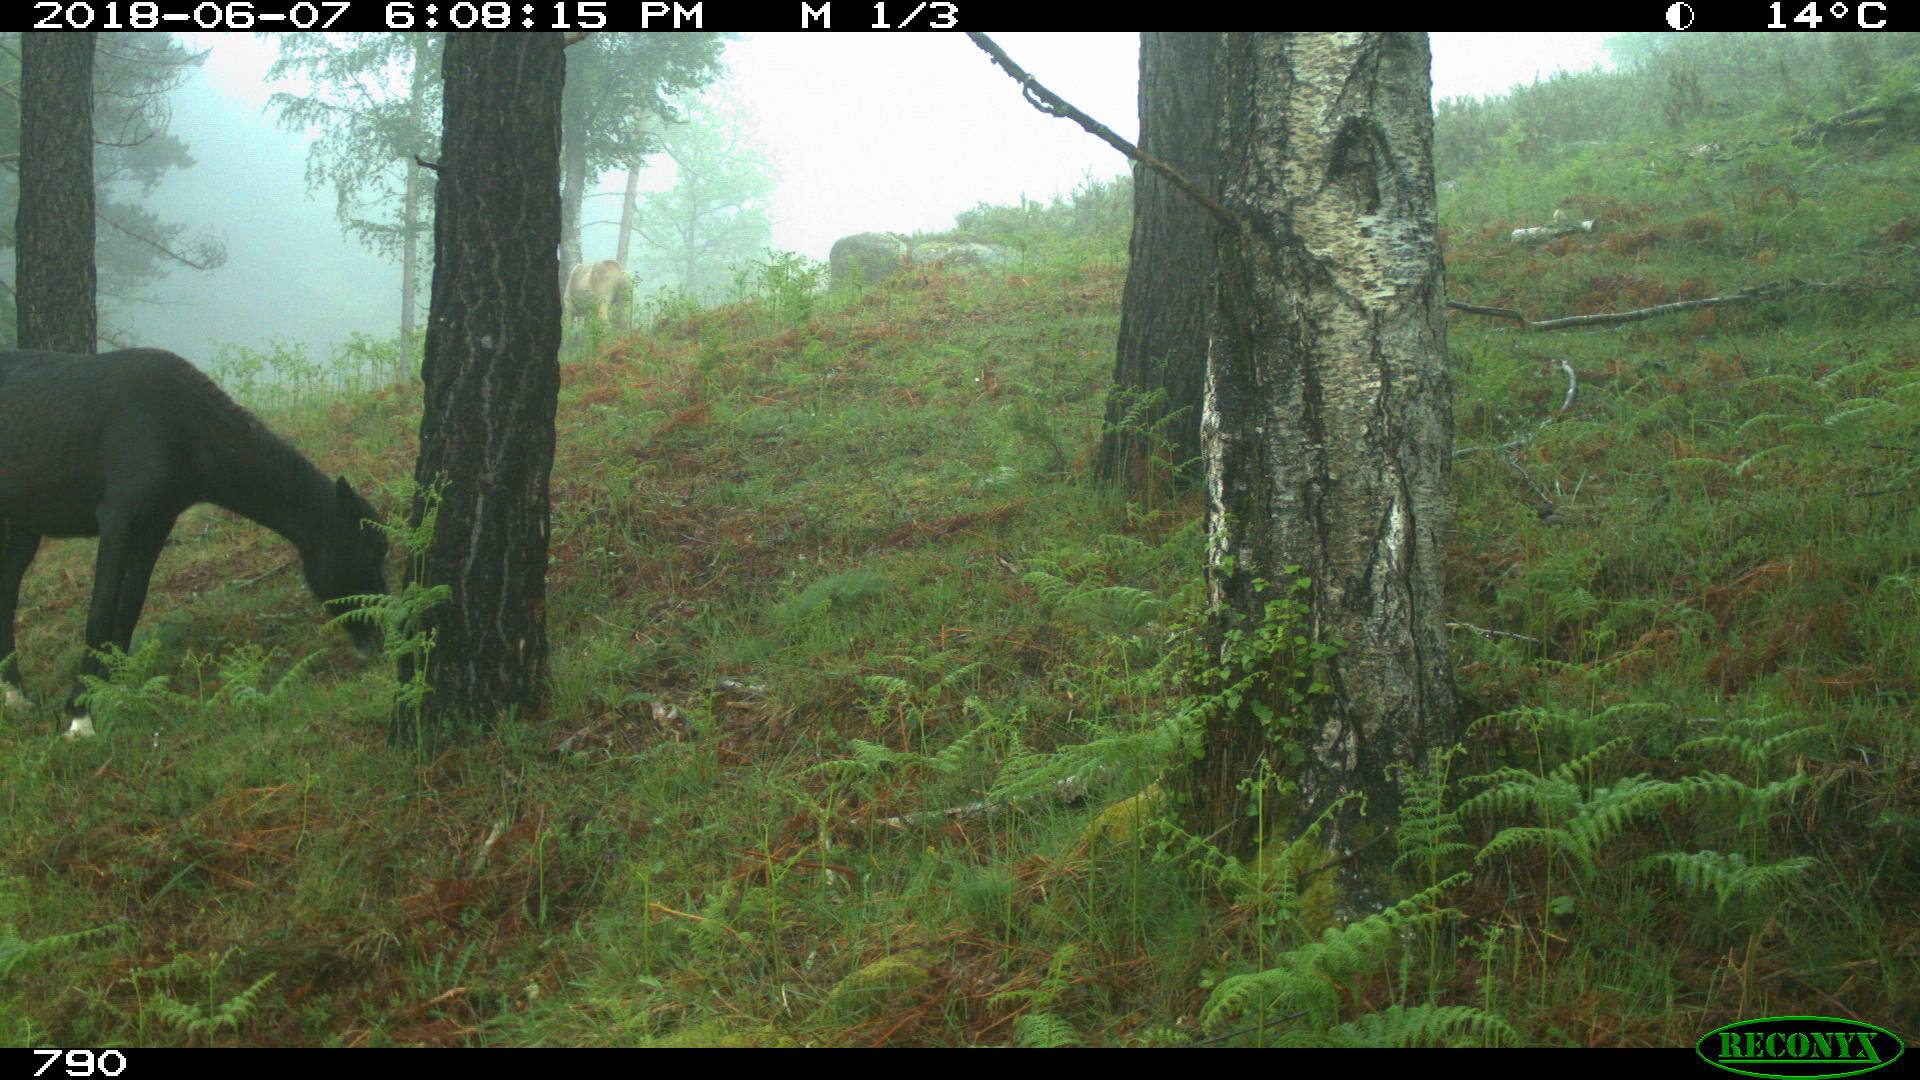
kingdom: Animalia
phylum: Chordata
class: Mammalia
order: Perissodactyla
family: Equidae
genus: Equus
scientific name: Equus caballus
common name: Horse
